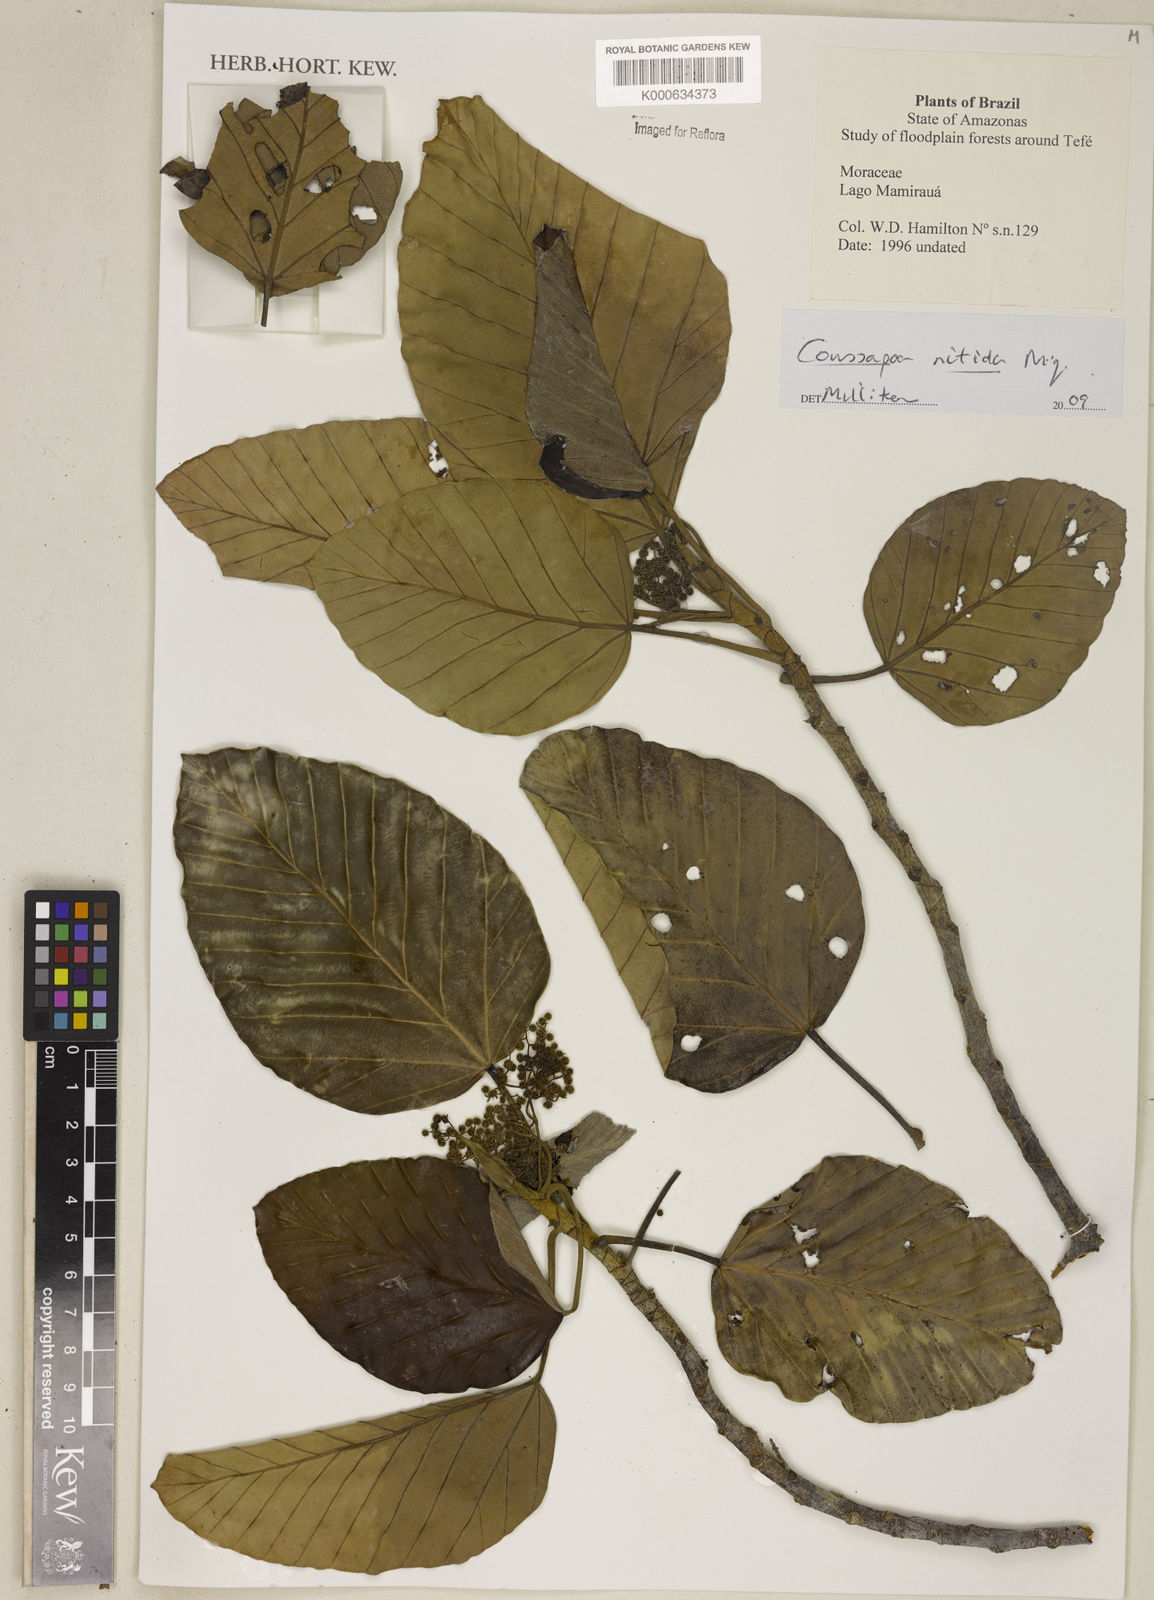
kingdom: Plantae
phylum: Tracheophyta
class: Magnoliopsida
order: Rosales
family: Urticaceae
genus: Pourouma
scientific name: Pourouma guianensis
